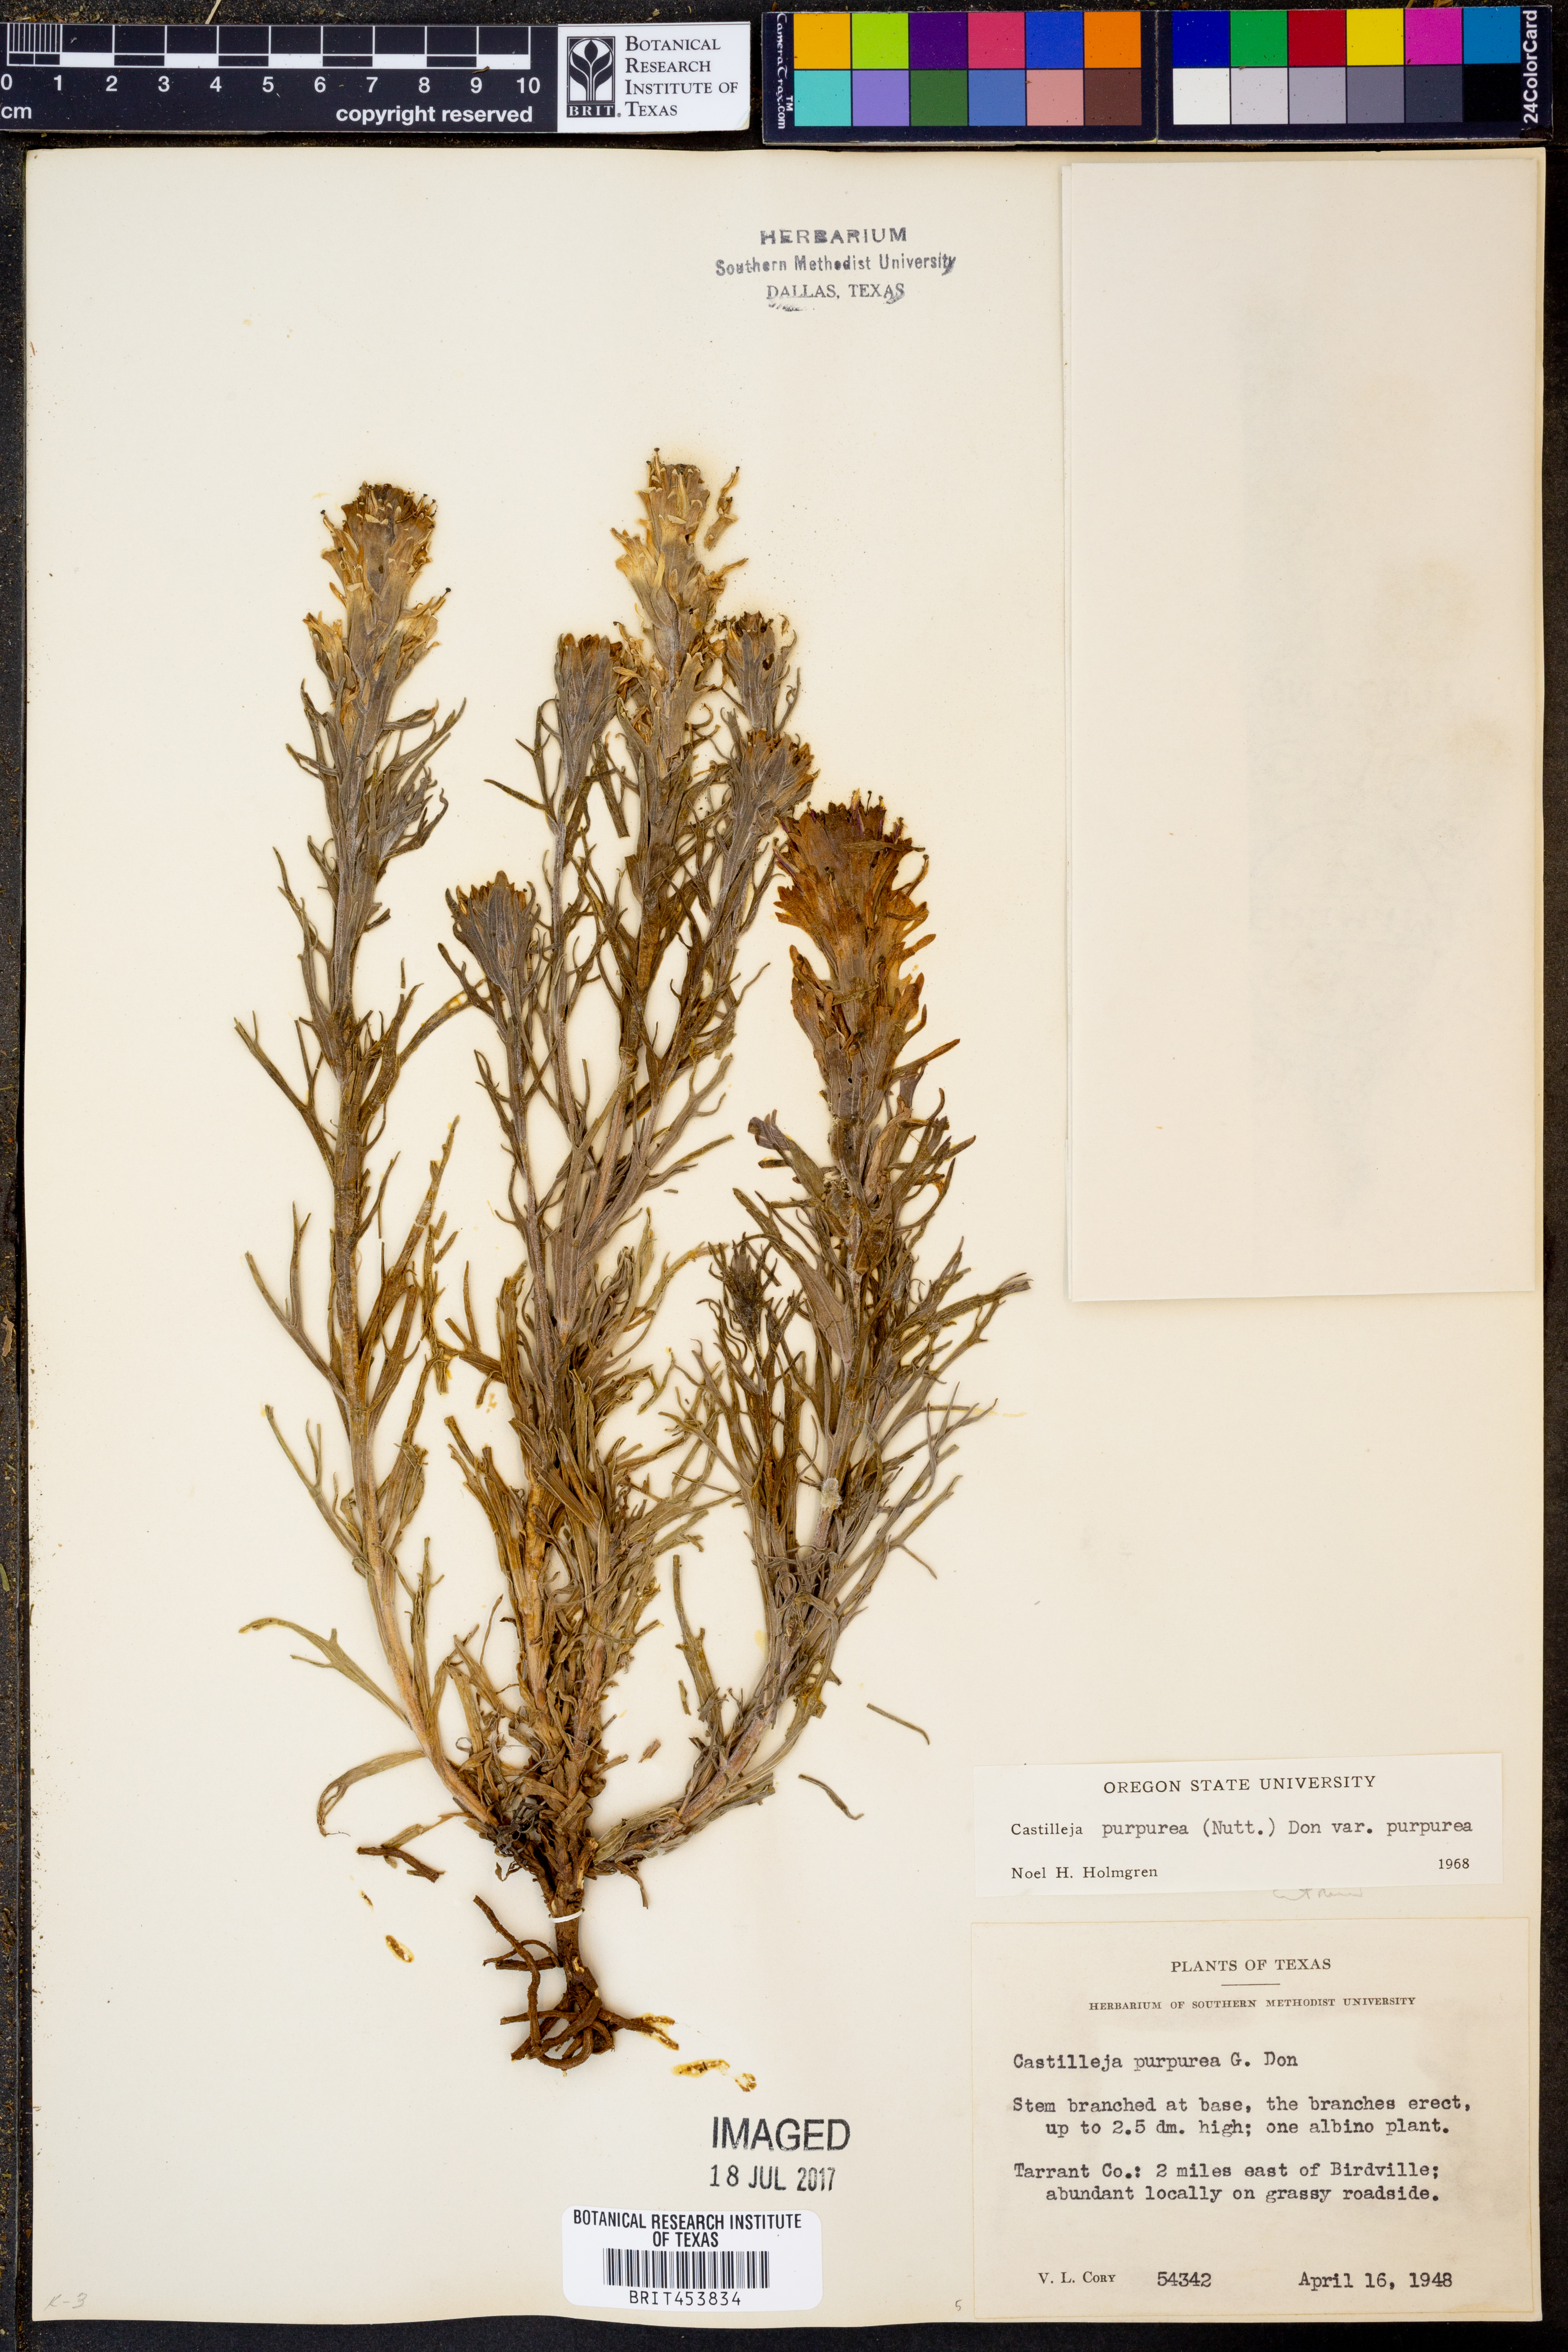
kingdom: Plantae
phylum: Tracheophyta
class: Magnoliopsida
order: Lamiales
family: Orobanchaceae
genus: Castilleja
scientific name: Castilleja purpurea
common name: Plains paintbrush
